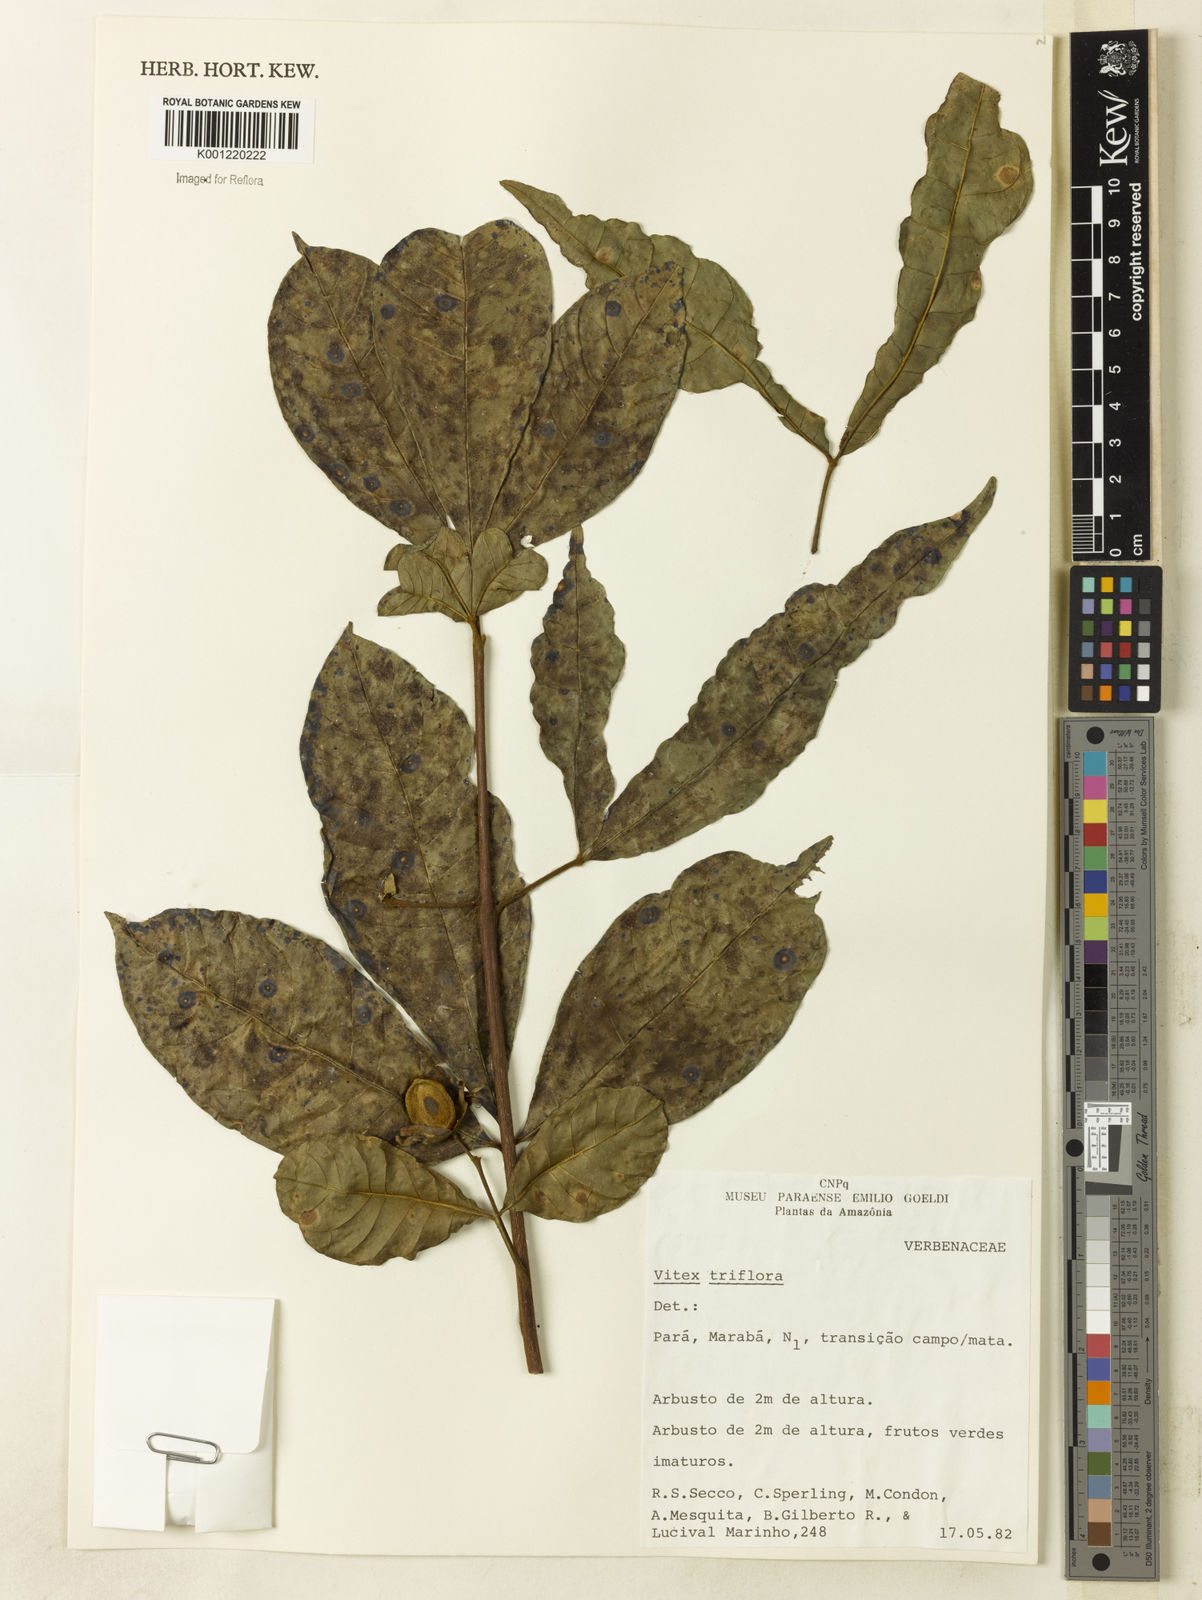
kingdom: Plantae
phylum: Tracheophyta
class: Magnoliopsida
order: Lamiales
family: Lamiaceae
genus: Vitex
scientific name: Vitex triflora
